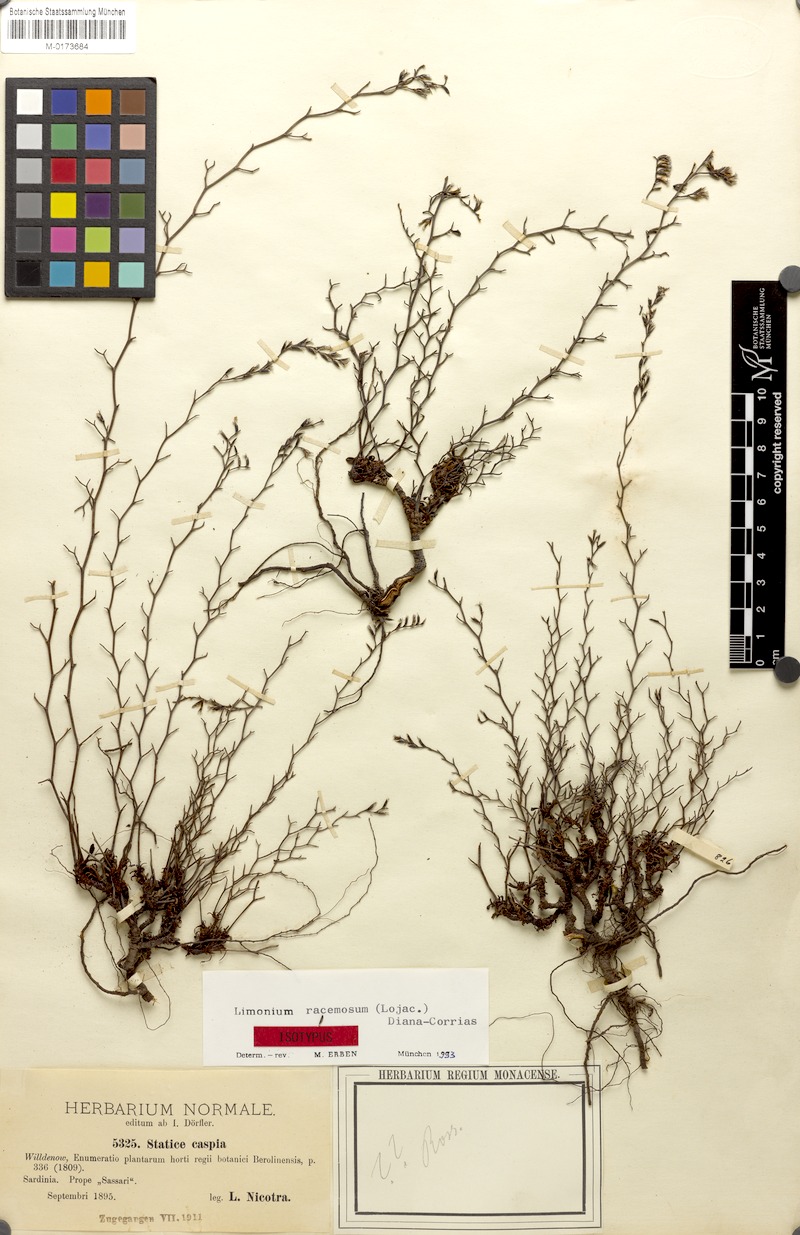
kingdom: Plantae
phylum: Tracheophyta
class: Magnoliopsida
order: Caryophyllales
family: Plumbaginaceae
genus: Limonium
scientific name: Limonium racemosum
